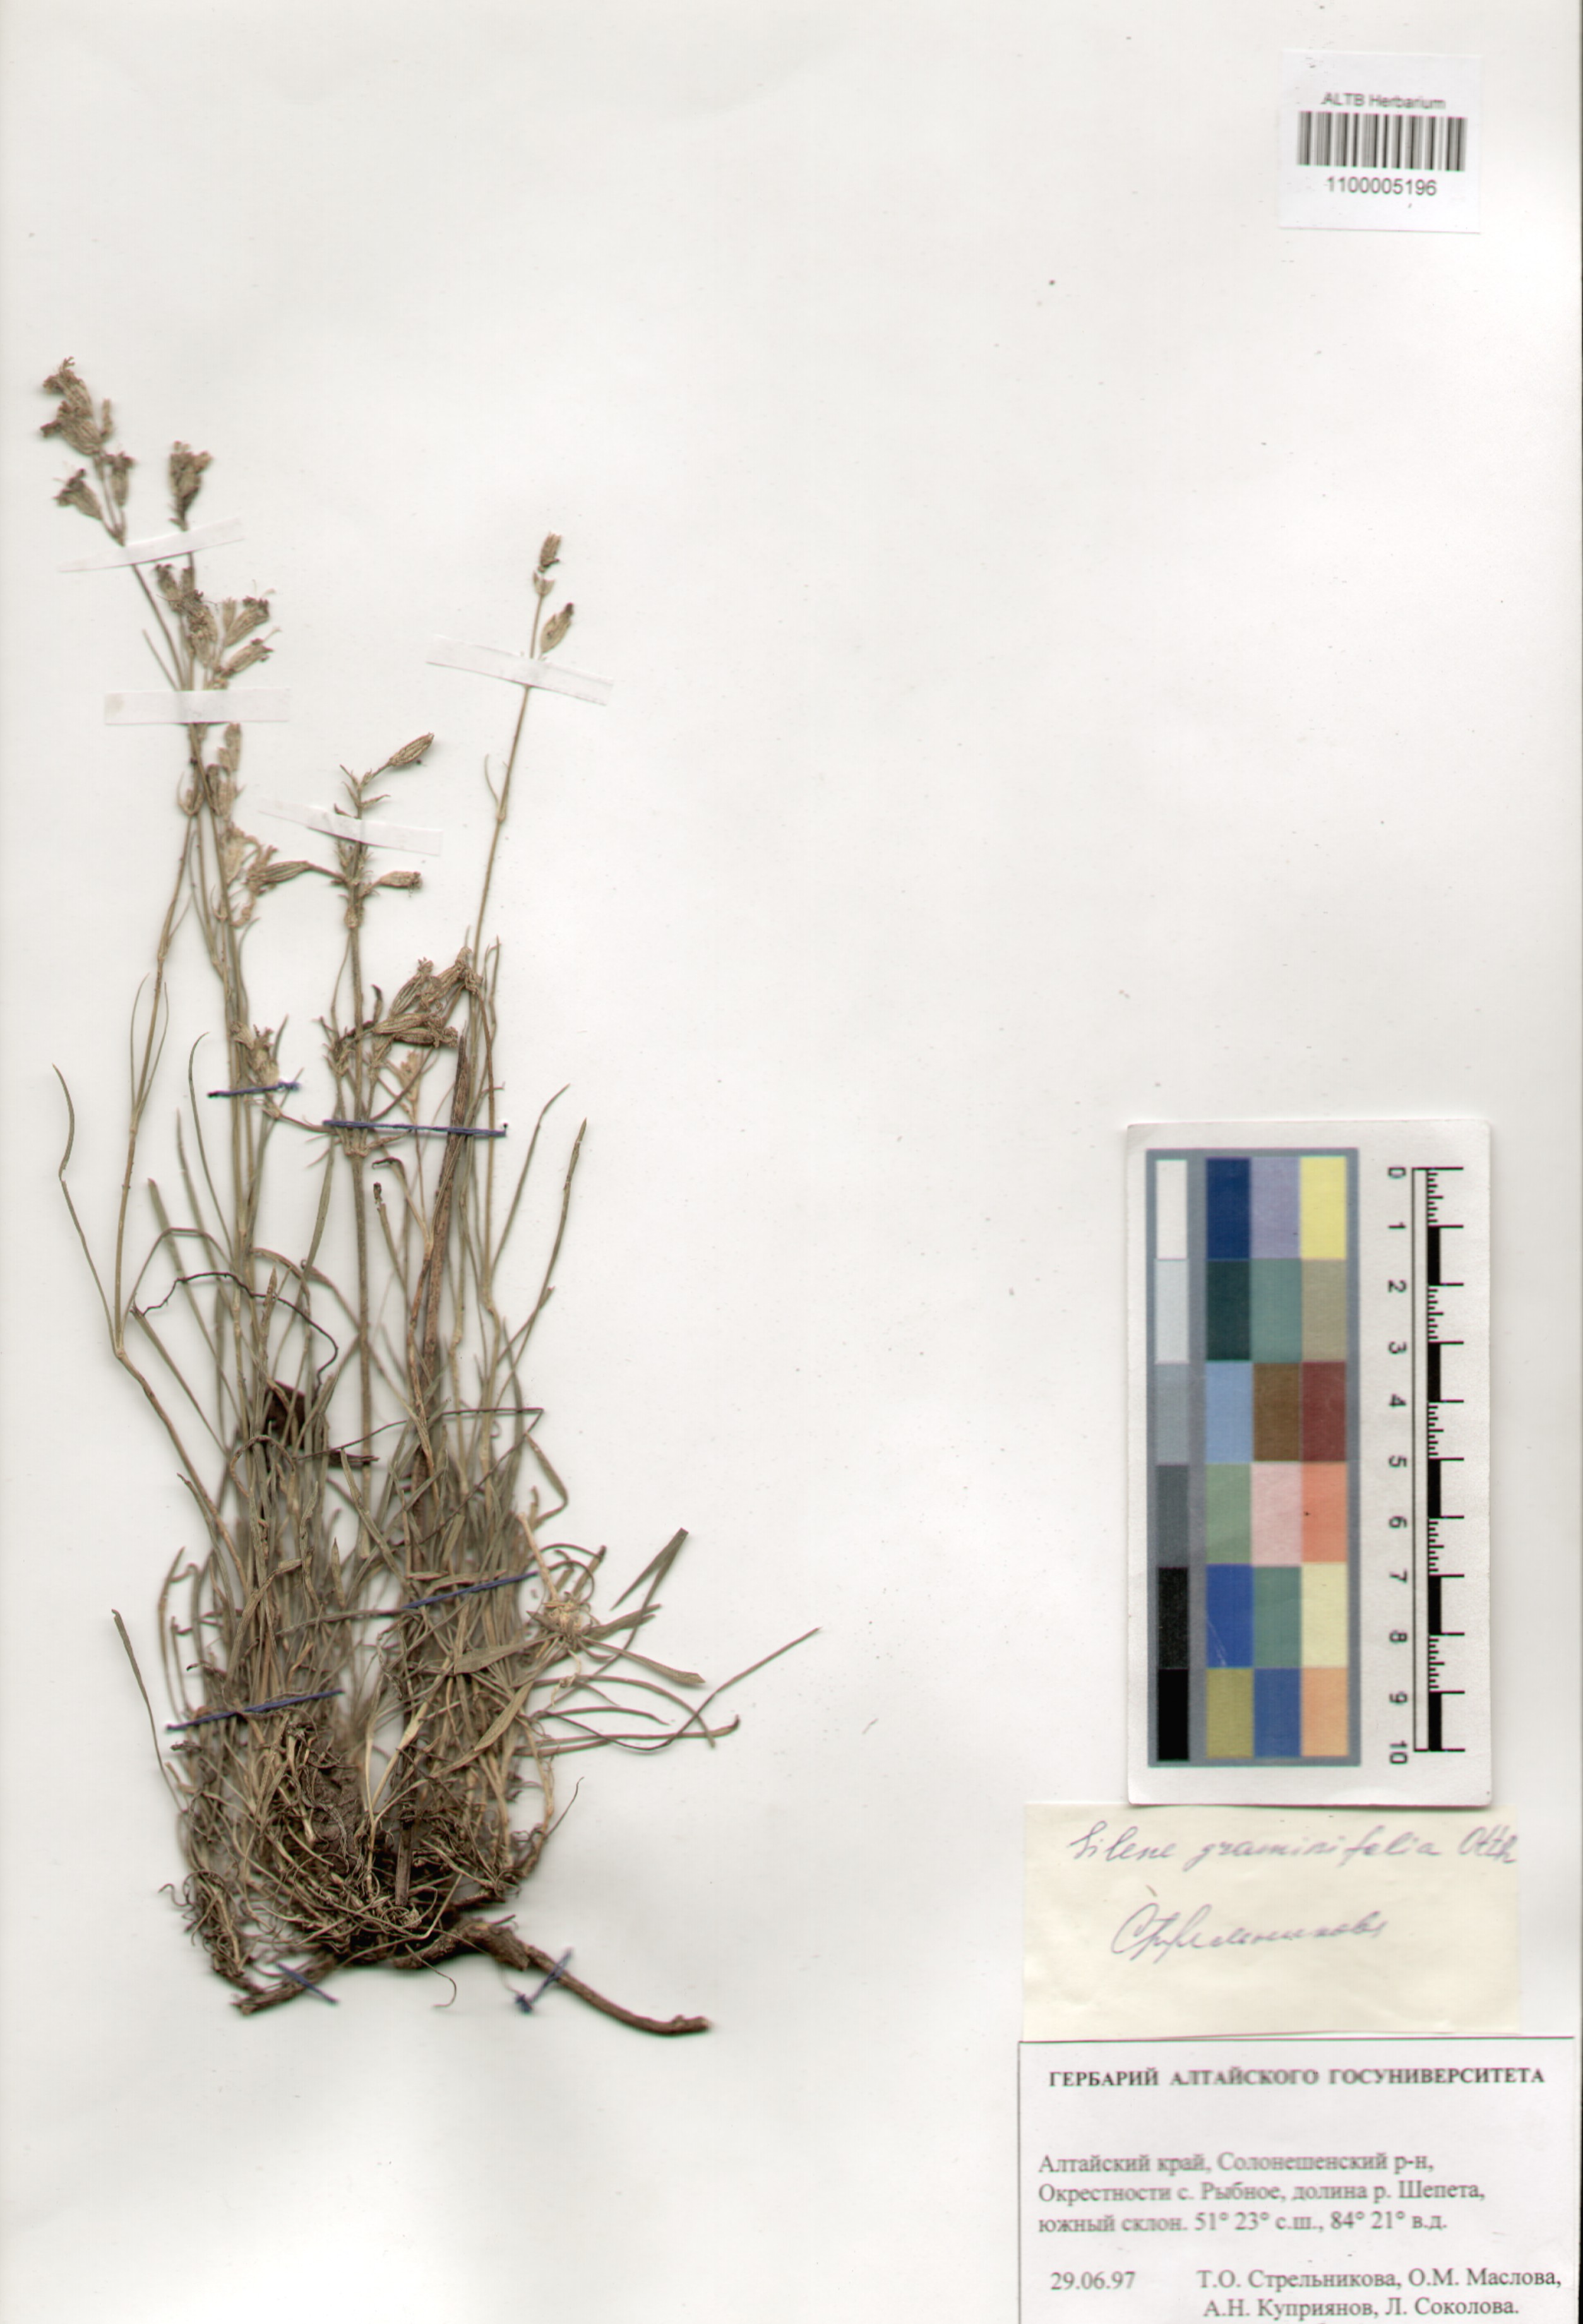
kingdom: Plantae
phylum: Tracheophyta
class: Magnoliopsida
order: Caryophyllales
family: Caryophyllaceae
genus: Silene
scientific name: Silene graminifolia
